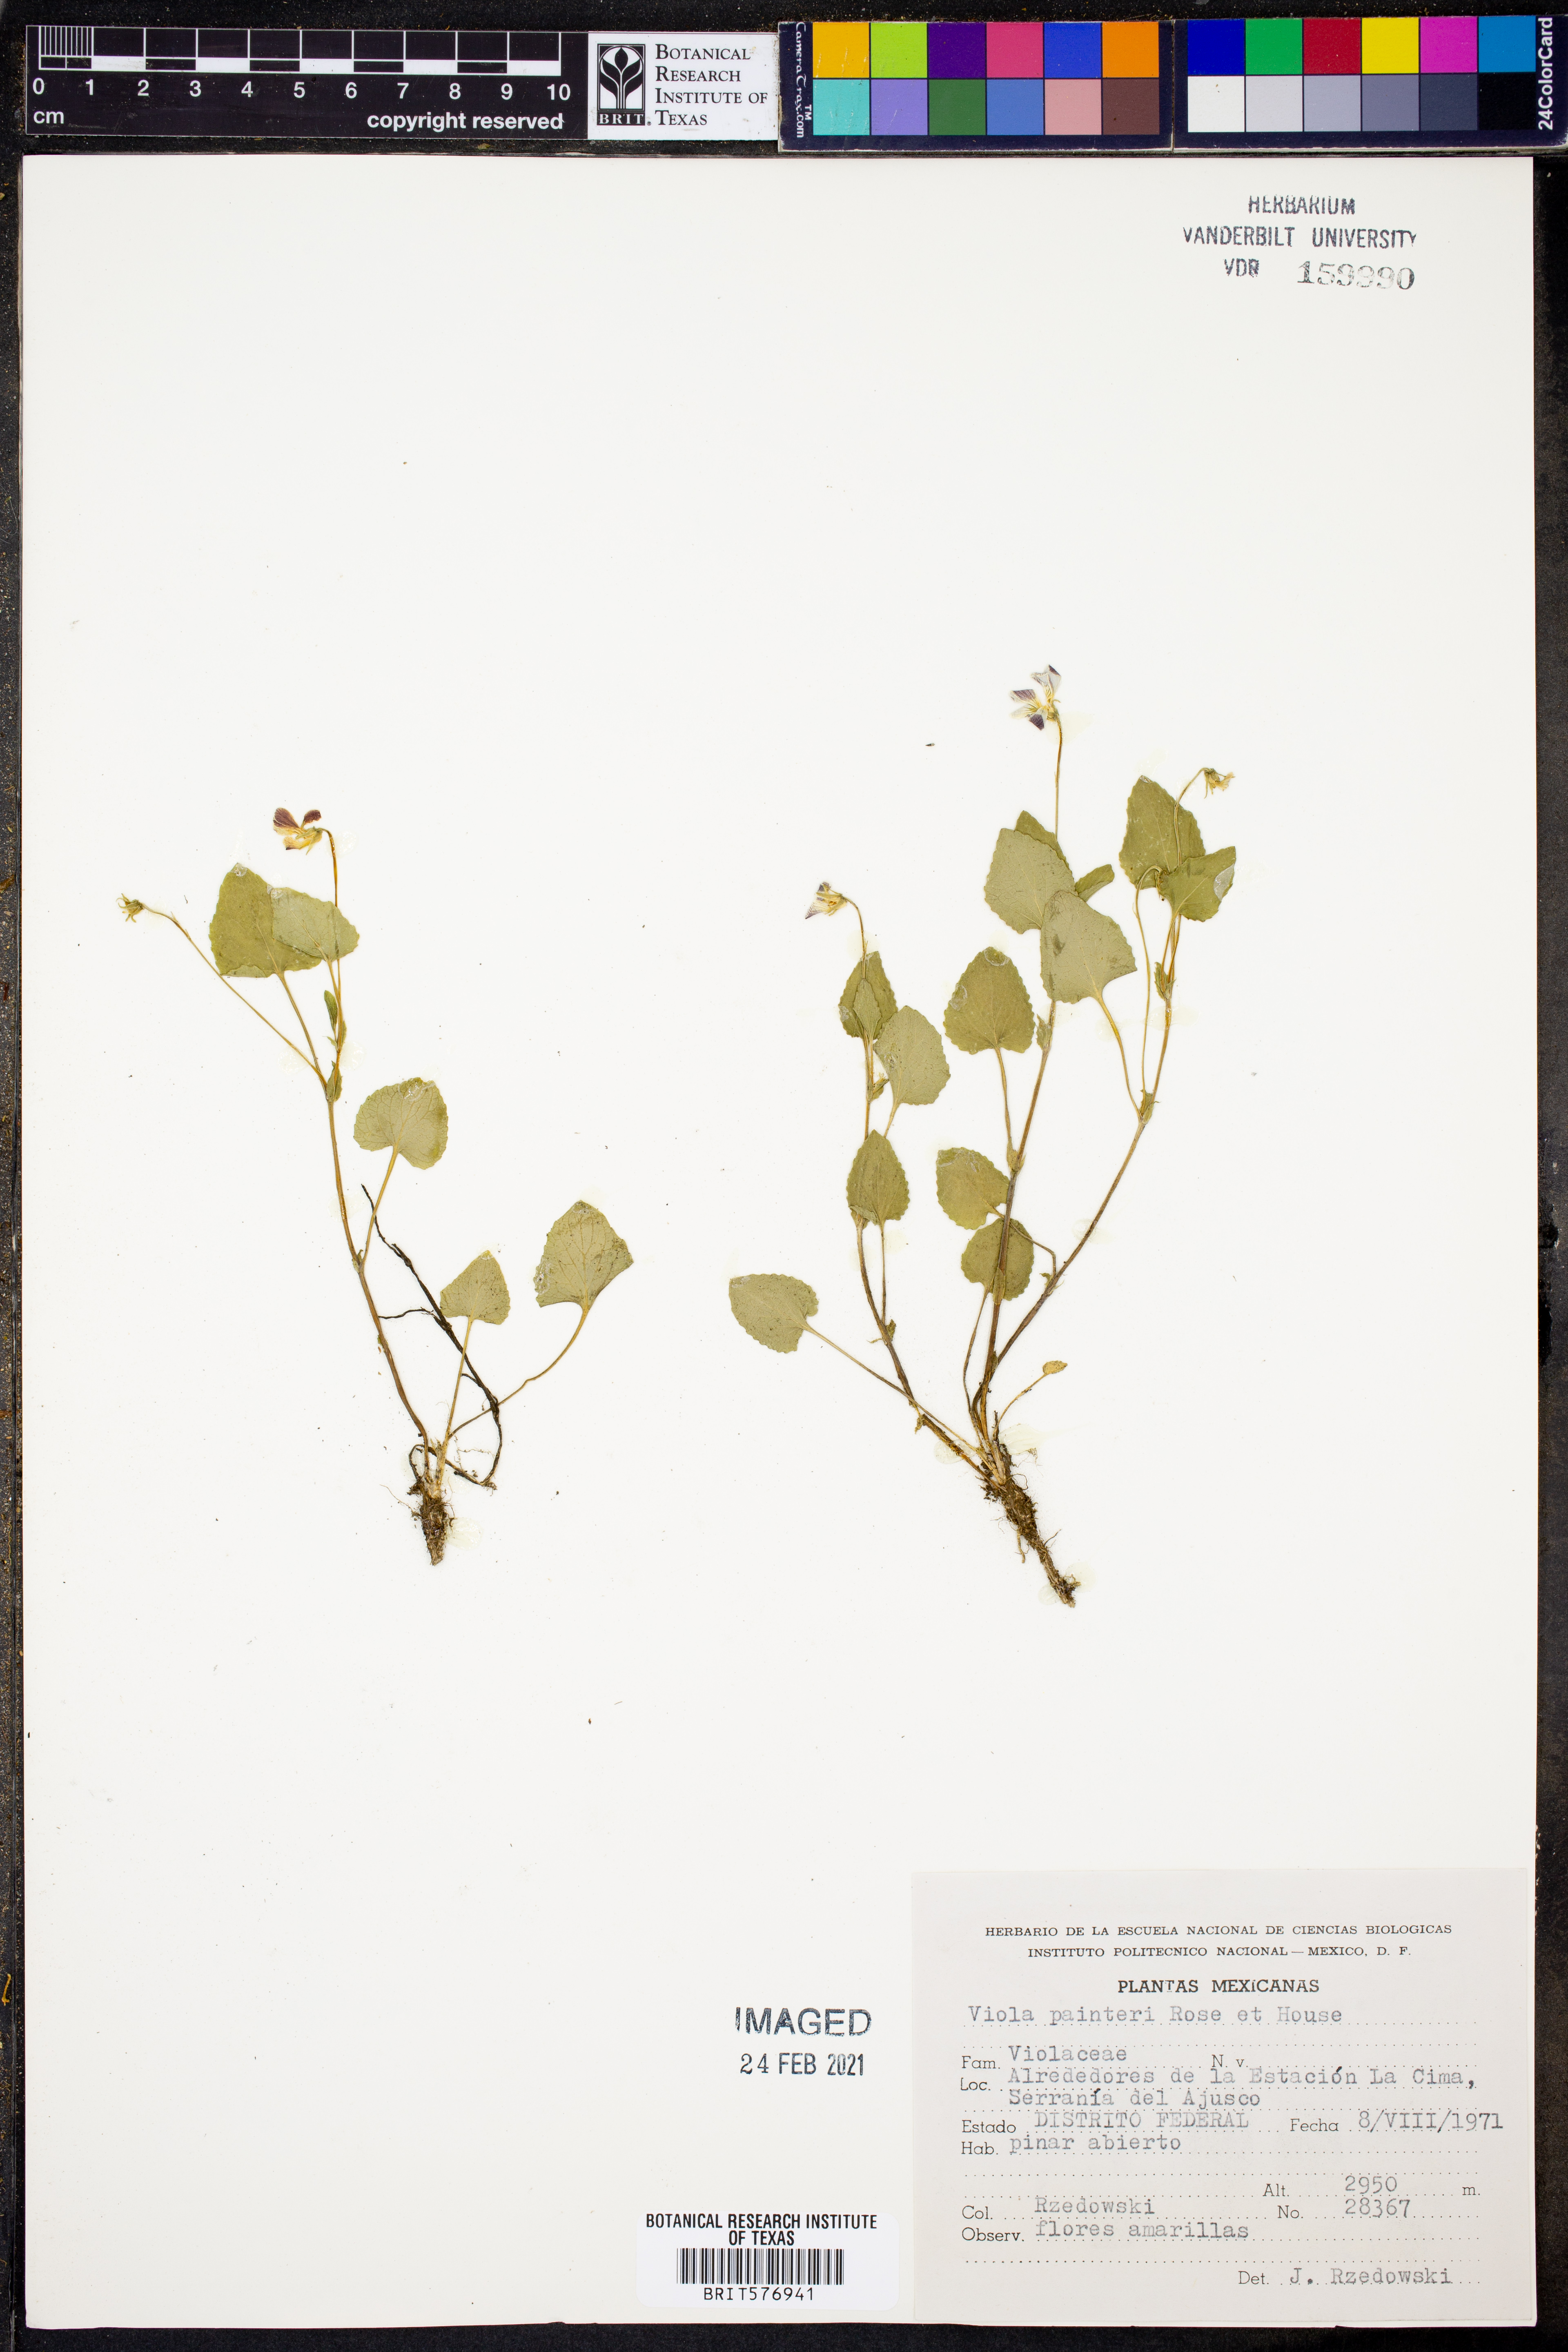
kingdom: Plantae
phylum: Tracheophyta
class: Magnoliopsida
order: Malpighiales
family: Violaceae
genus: Viola
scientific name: Viola painteri
